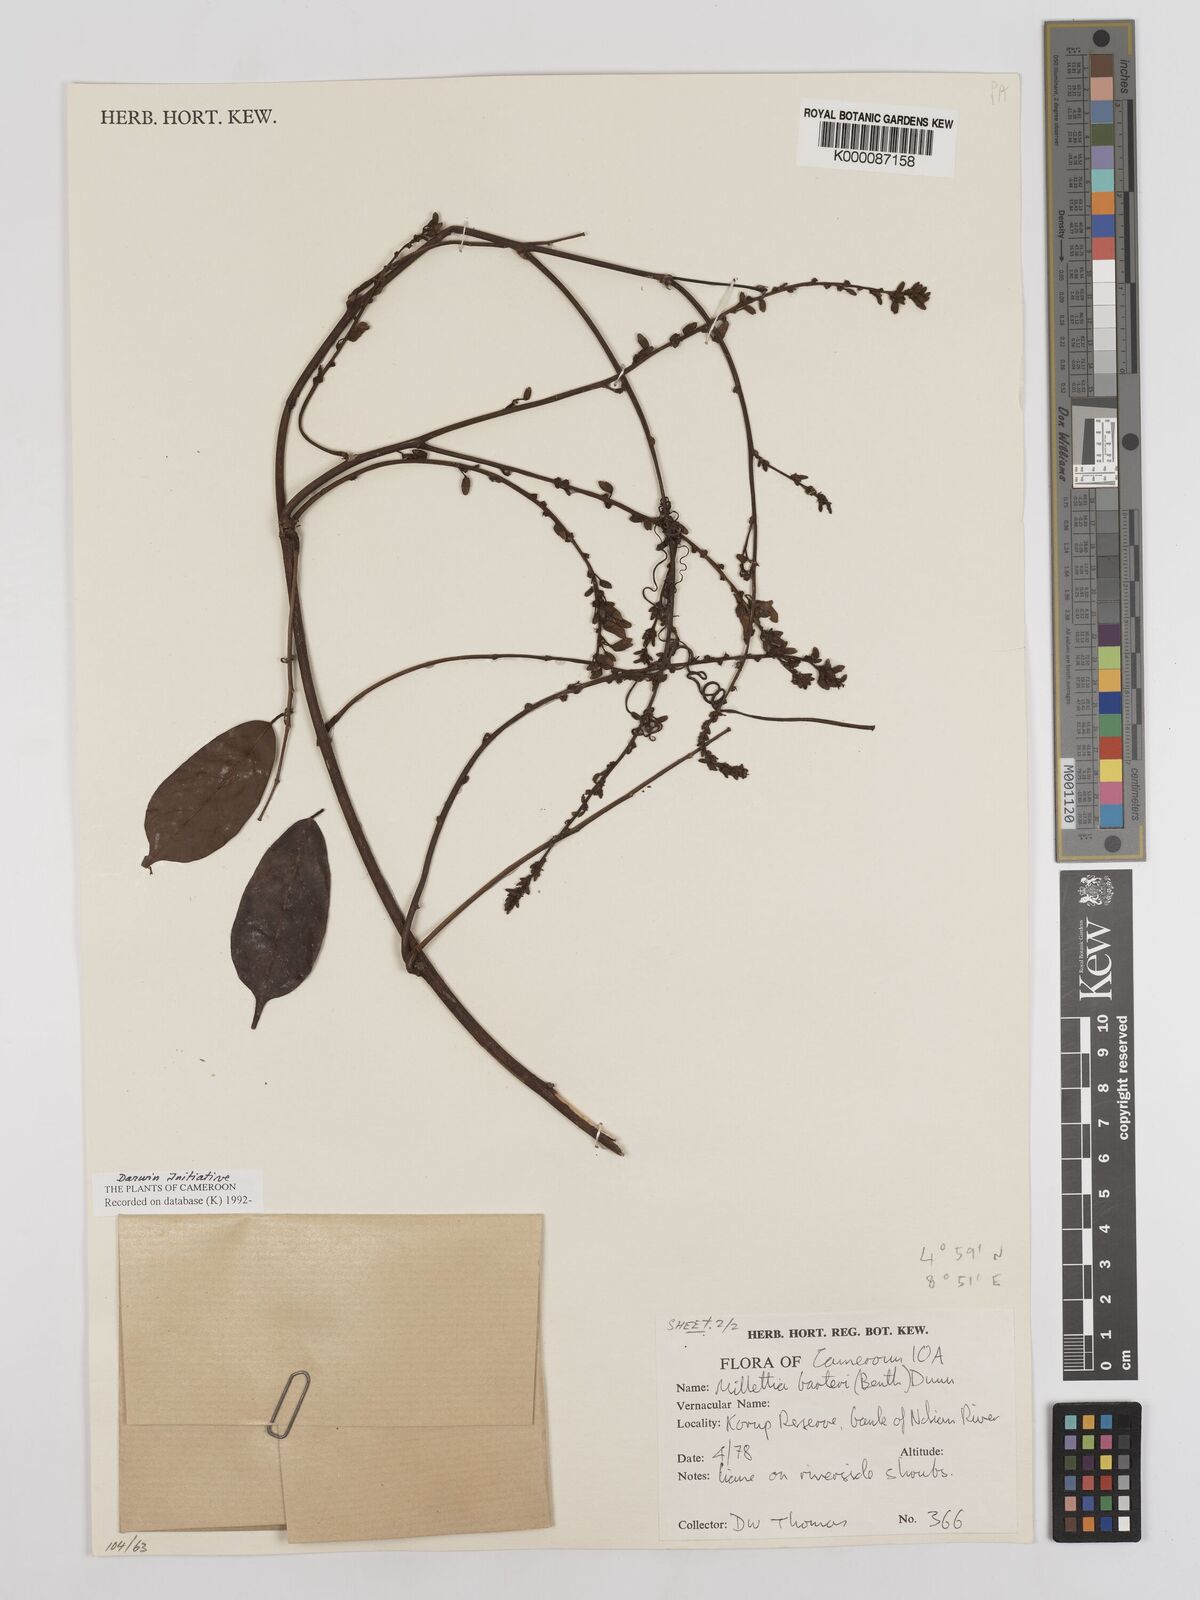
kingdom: Plantae
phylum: Tracheophyta
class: Magnoliopsida
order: Fabales
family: Fabaceae
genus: Millettia
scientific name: Millettia barteri
